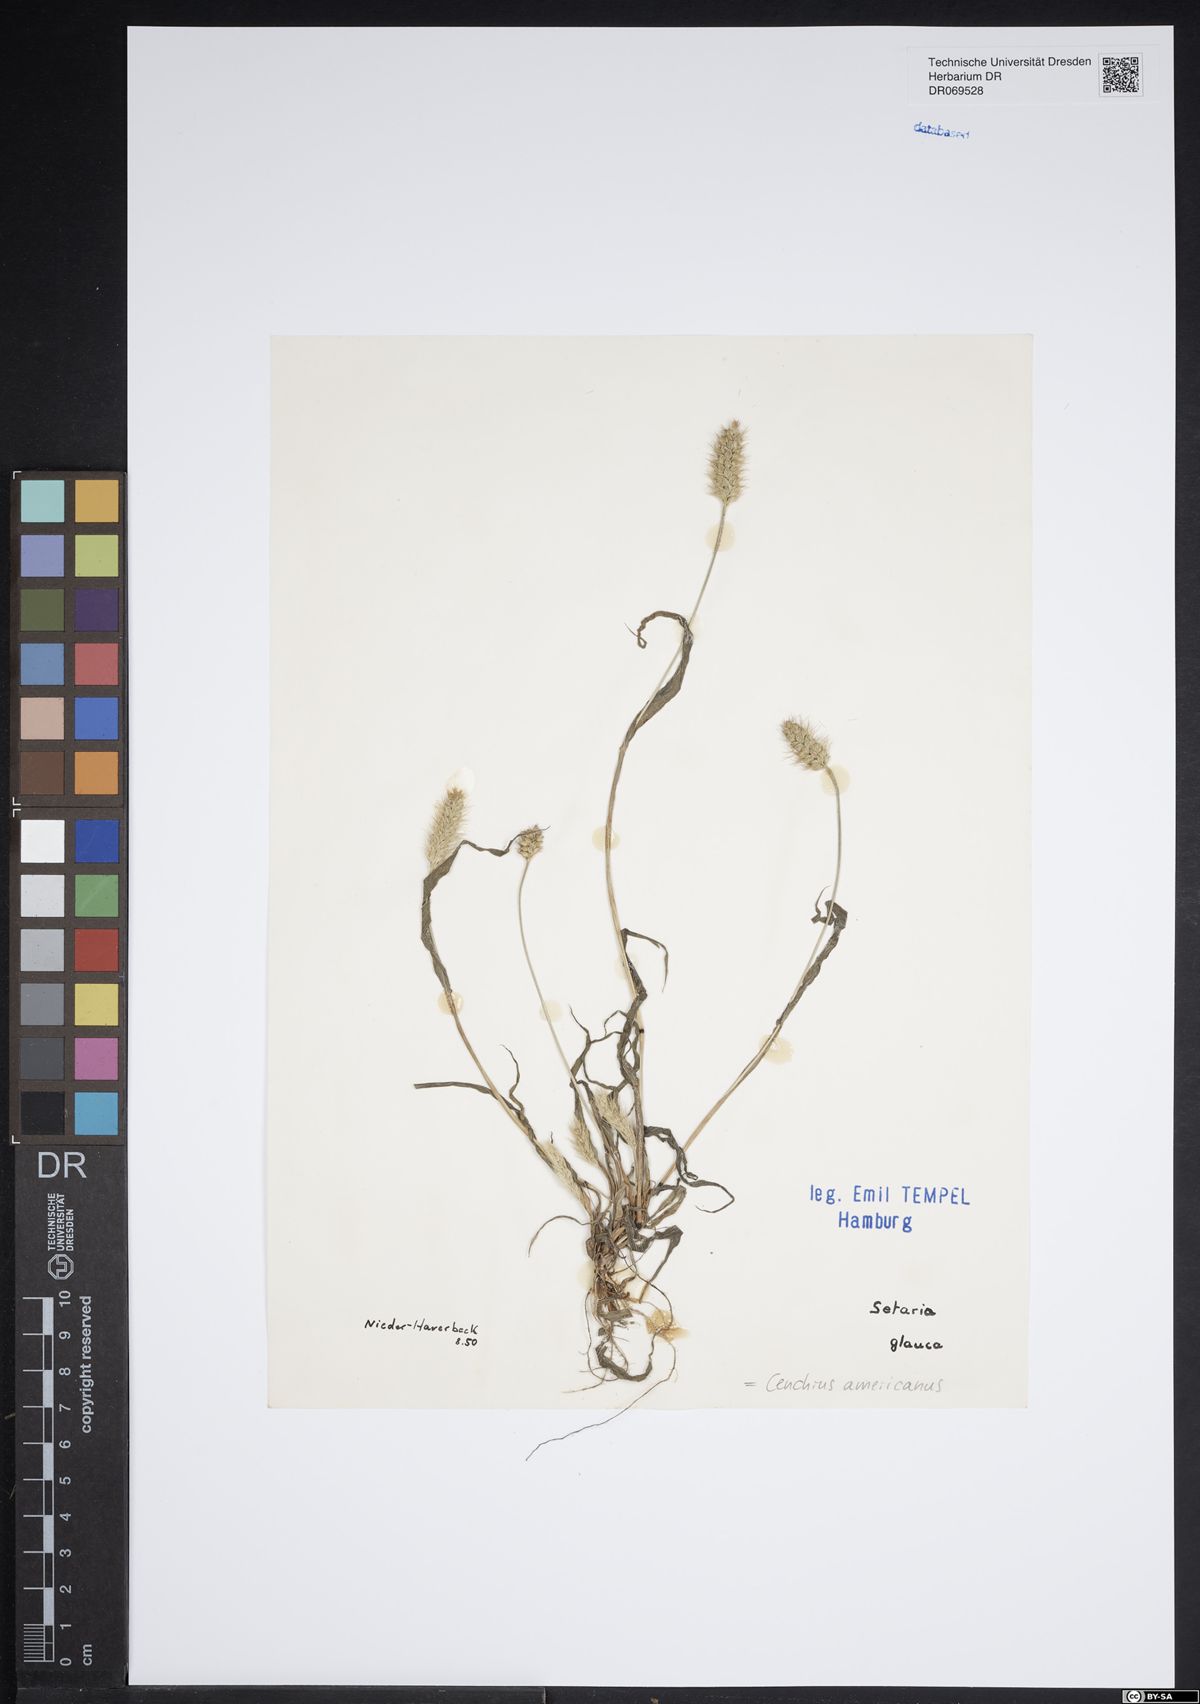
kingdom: Plantae
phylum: Tracheophyta
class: Liliopsida
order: Poales
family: Poaceae
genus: Cenchrus
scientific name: Cenchrus americanus
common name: Pearl millet
